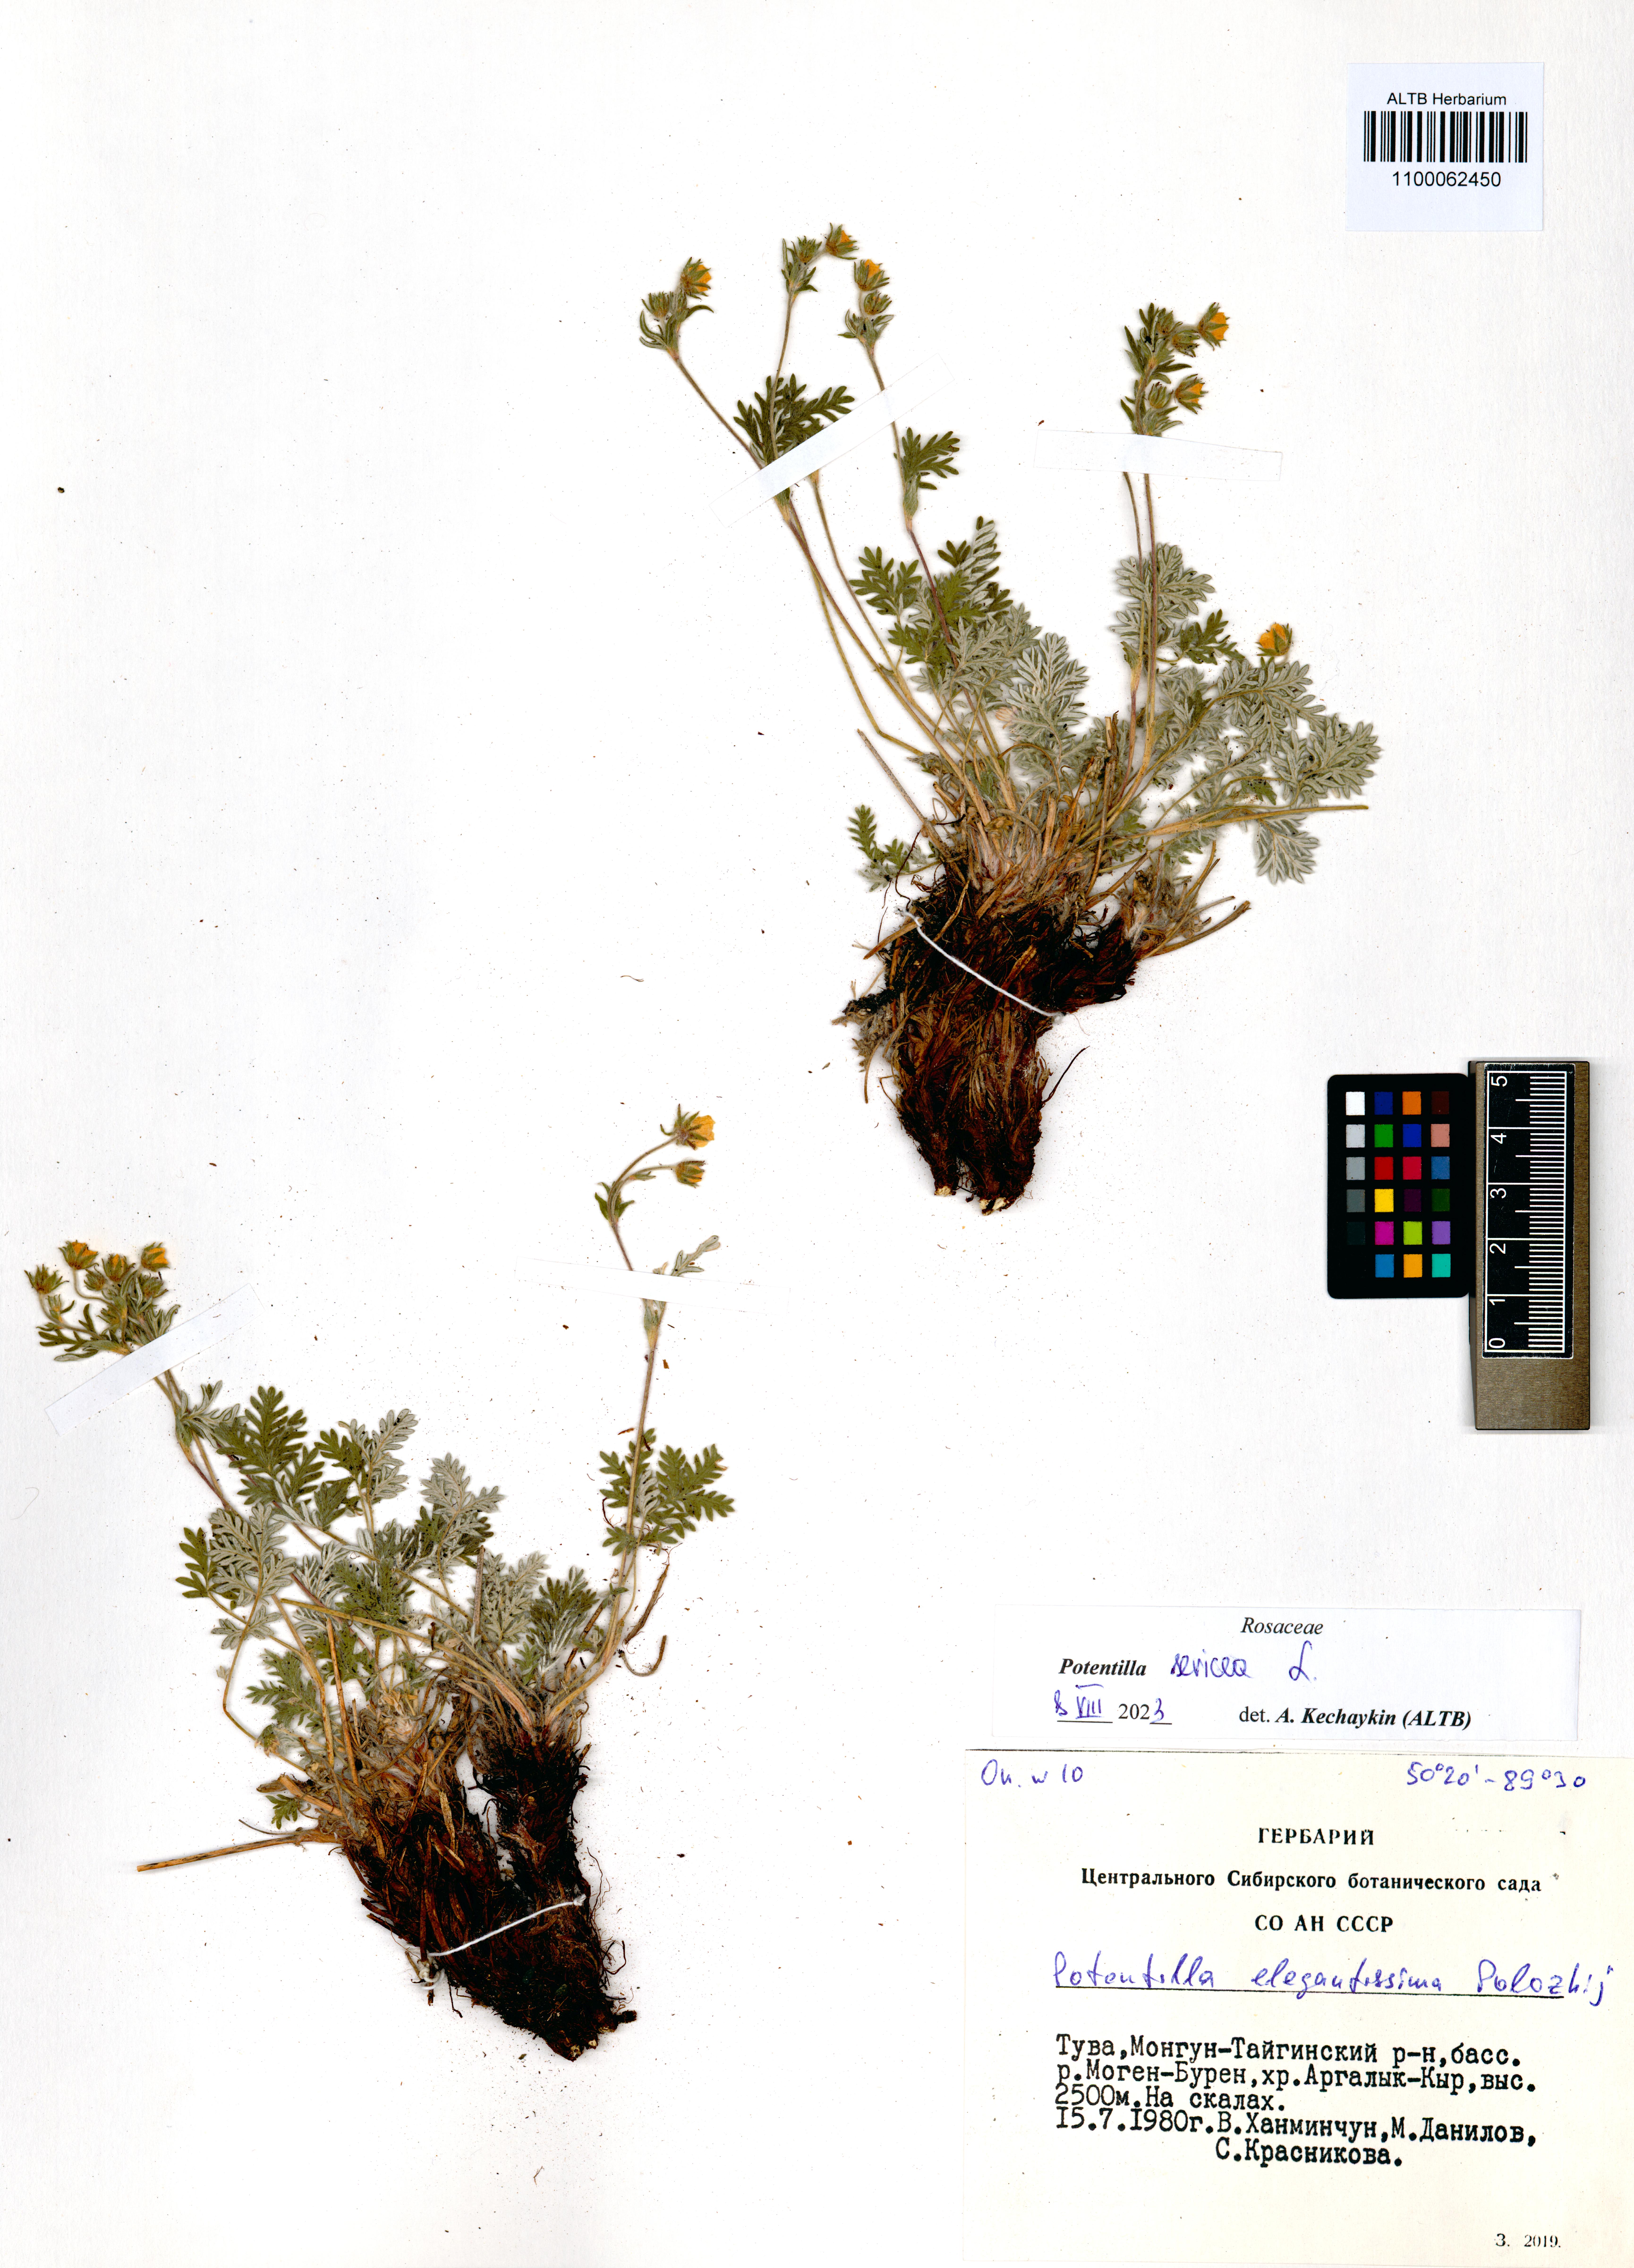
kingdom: Plantae
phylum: Tracheophyta
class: Magnoliopsida
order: Rosales
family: Rosaceae
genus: Potentilla
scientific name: Potentilla sericea
